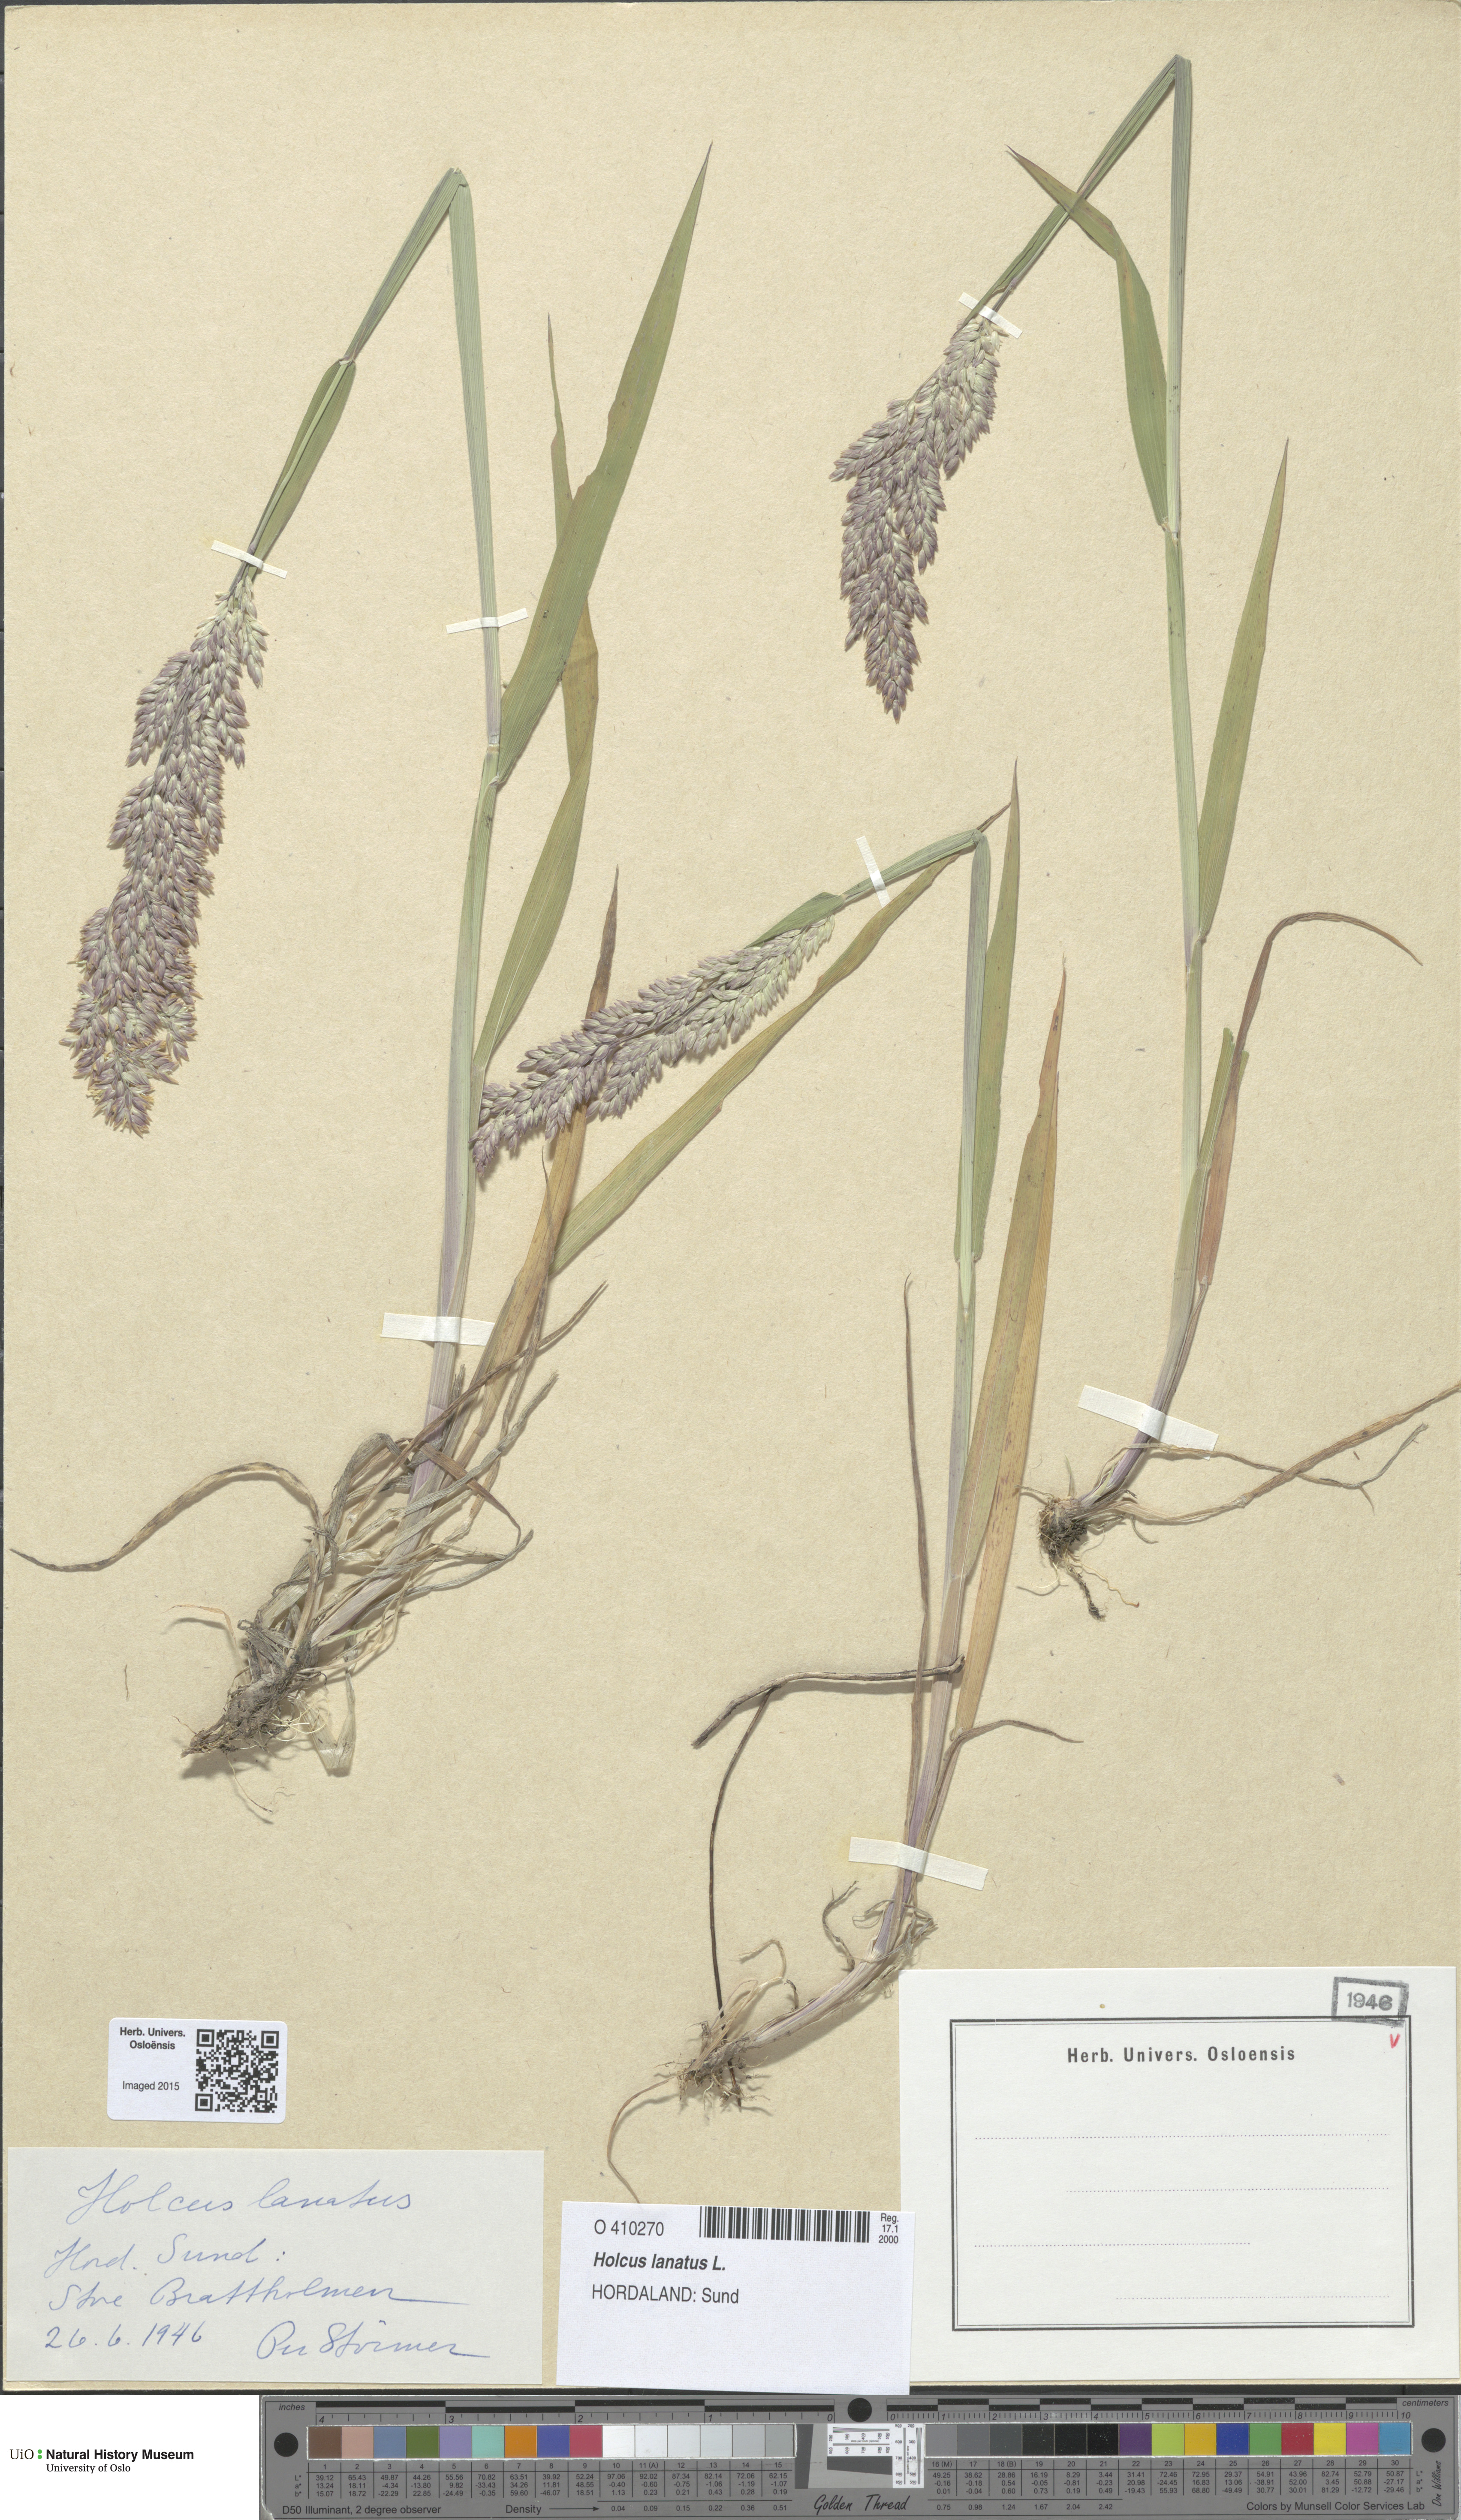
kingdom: Plantae
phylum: Tracheophyta
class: Liliopsida
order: Poales
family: Poaceae
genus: Holcus
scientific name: Holcus lanatus
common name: Yorkshire-fog
